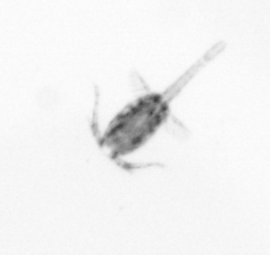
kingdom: Animalia
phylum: Arthropoda
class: Copepoda
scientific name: Copepoda
